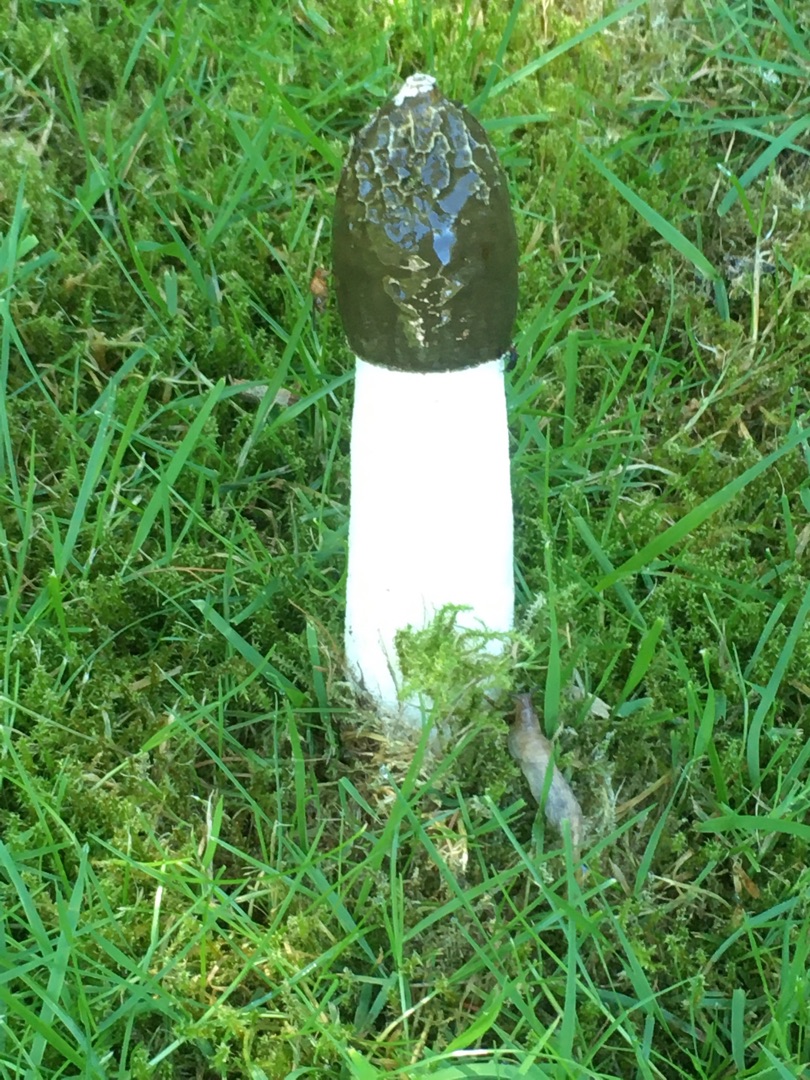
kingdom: Fungi
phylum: Basidiomycota
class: Agaricomycetes
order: Phallales
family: Phallaceae
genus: Phallus
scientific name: Phallus impudicus
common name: Almindelig stinksvamp
